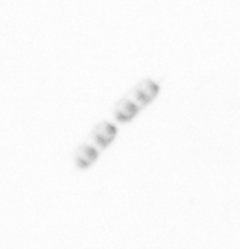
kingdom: Chromista
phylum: Ochrophyta
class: Bacillariophyceae
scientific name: Bacillariophyceae
